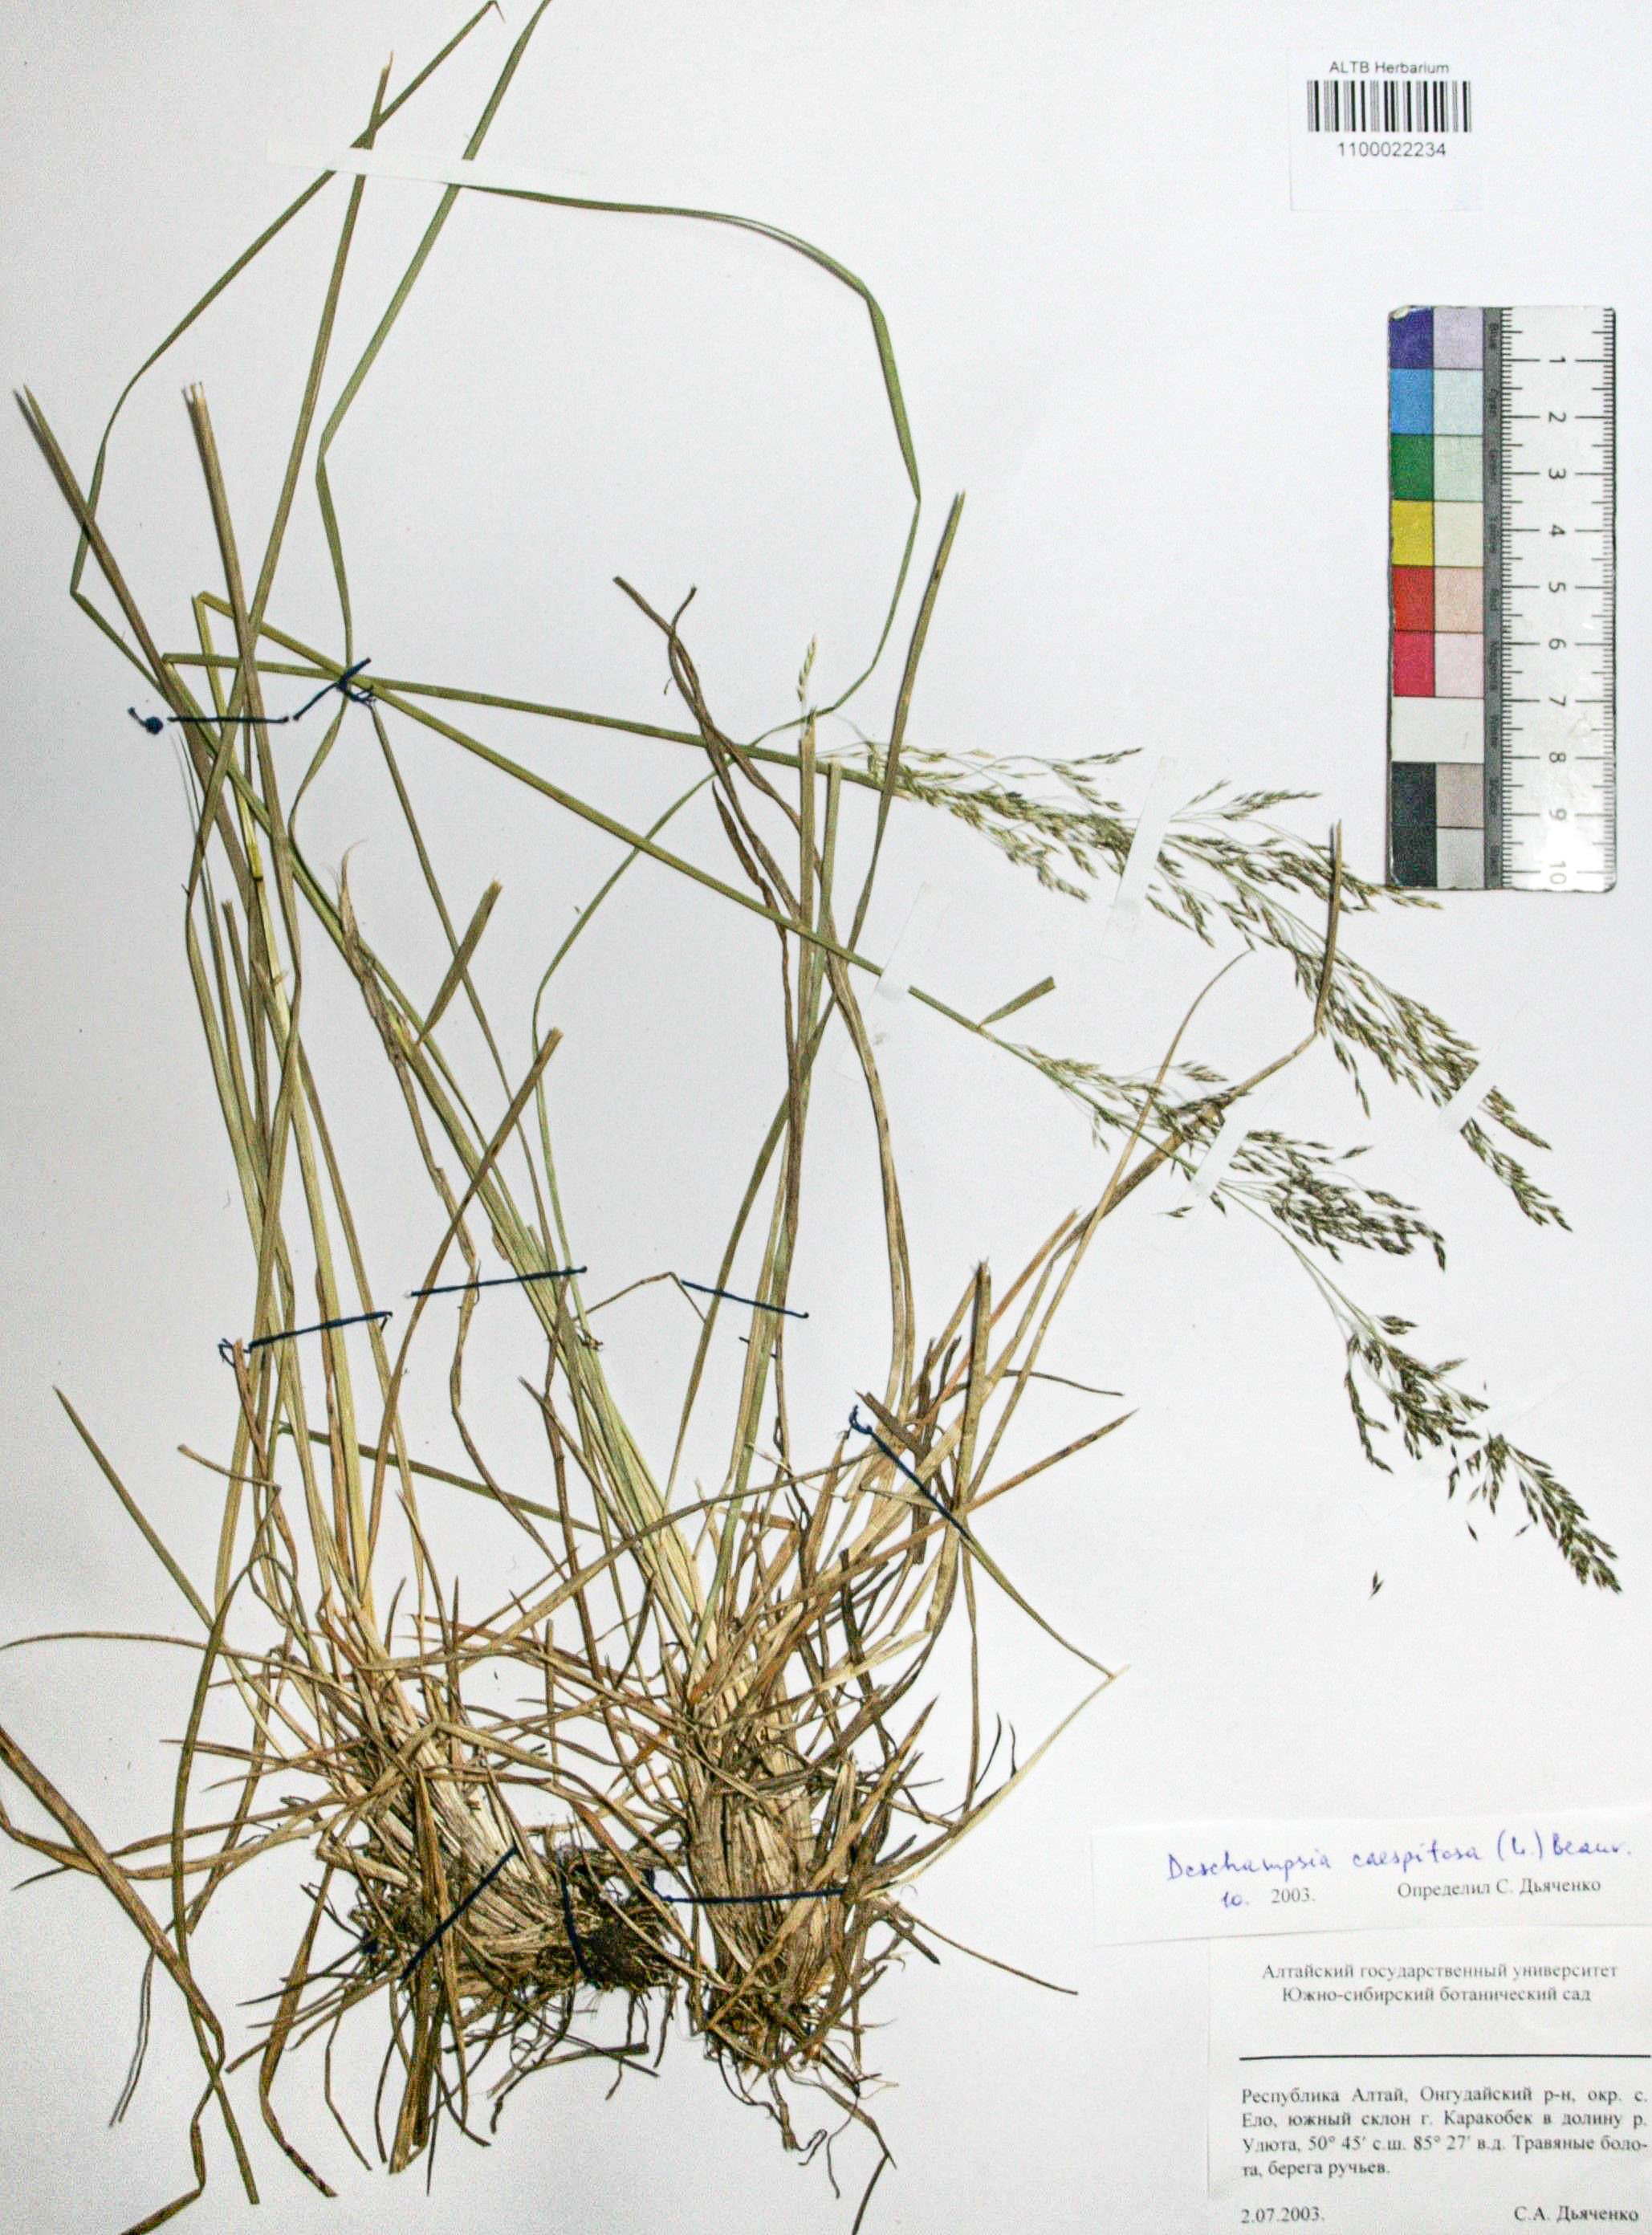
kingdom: Plantae
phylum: Tracheophyta
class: Liliopsida
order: Poales
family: Poaceae
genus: Deschampsia
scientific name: Deschampsia cespitosa
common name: Tufted hair-grass
